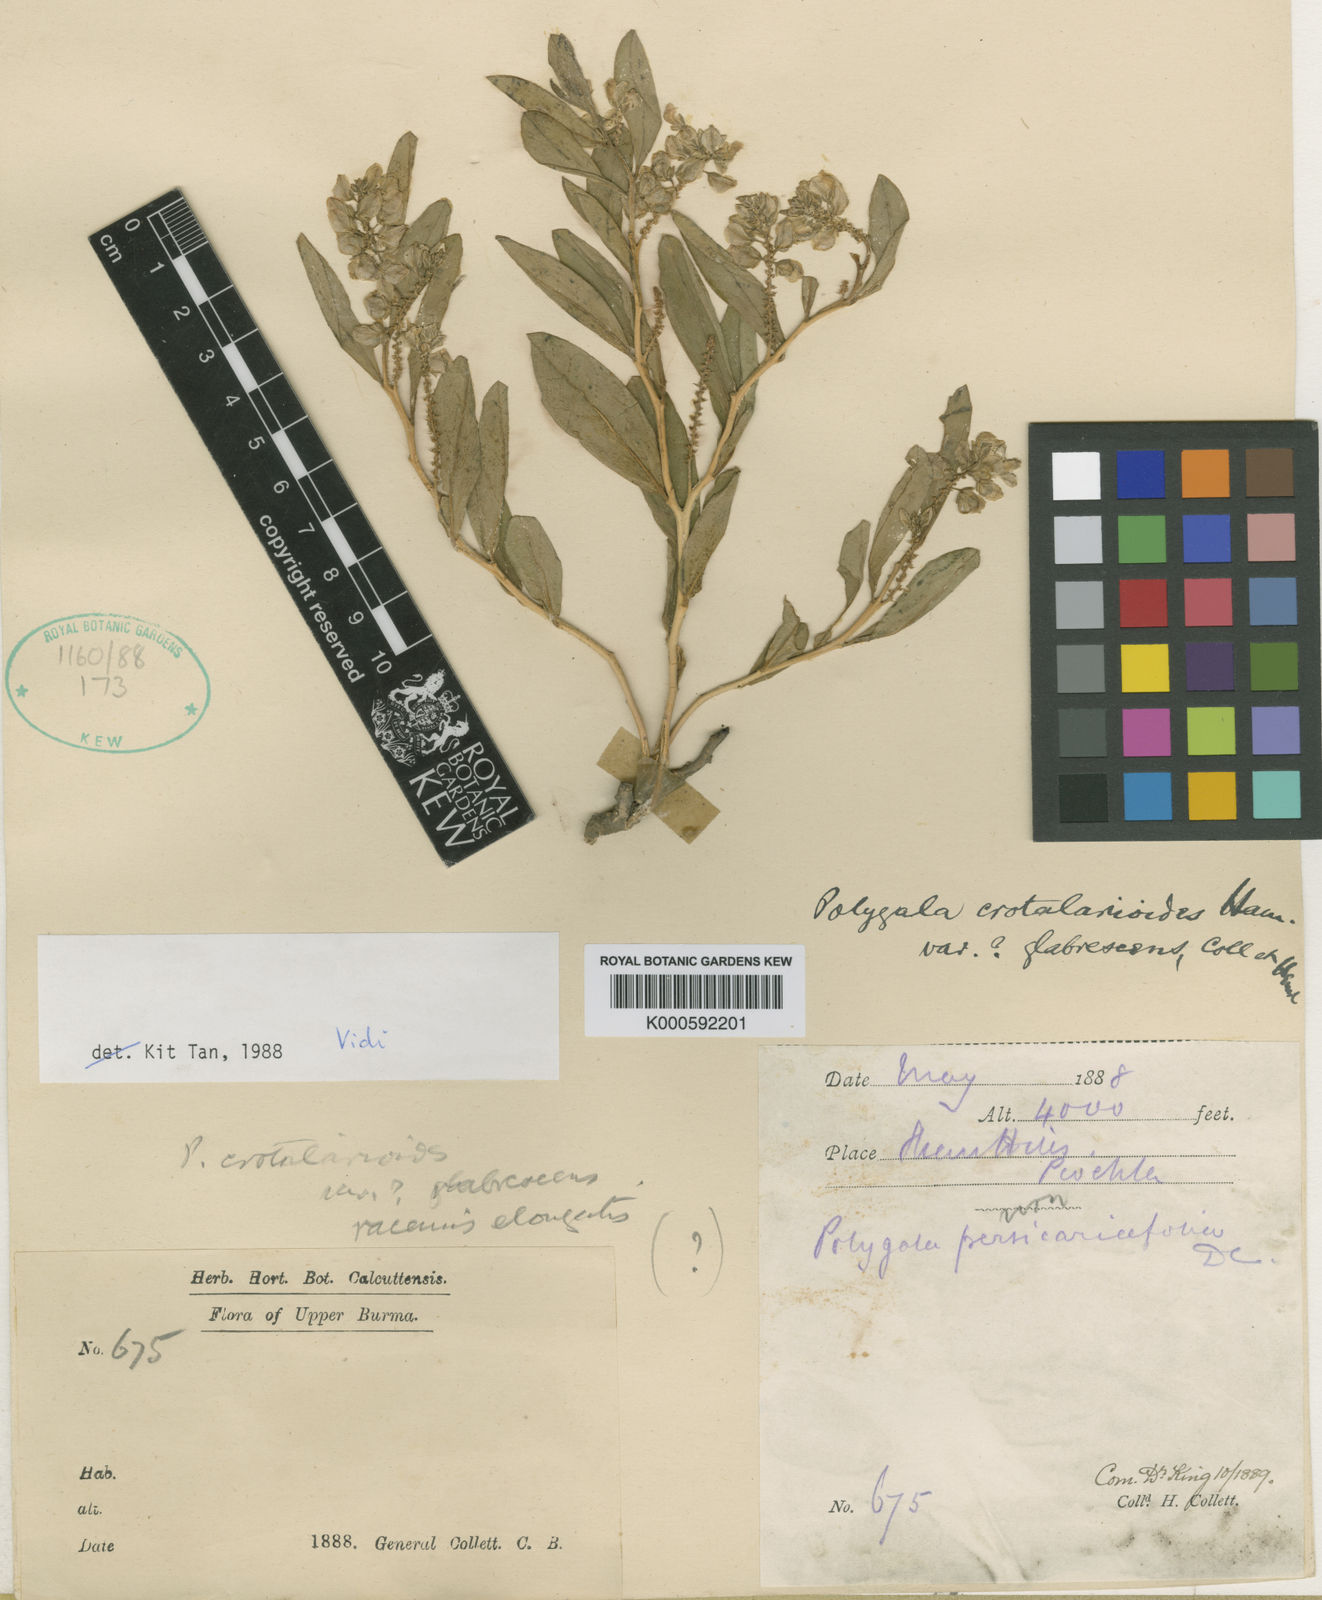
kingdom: Plantae
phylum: Tracheophyta
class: Magnoliopsida
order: Fabales
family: Polygalaceae
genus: Polygala
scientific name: Polygala crotalarioides
